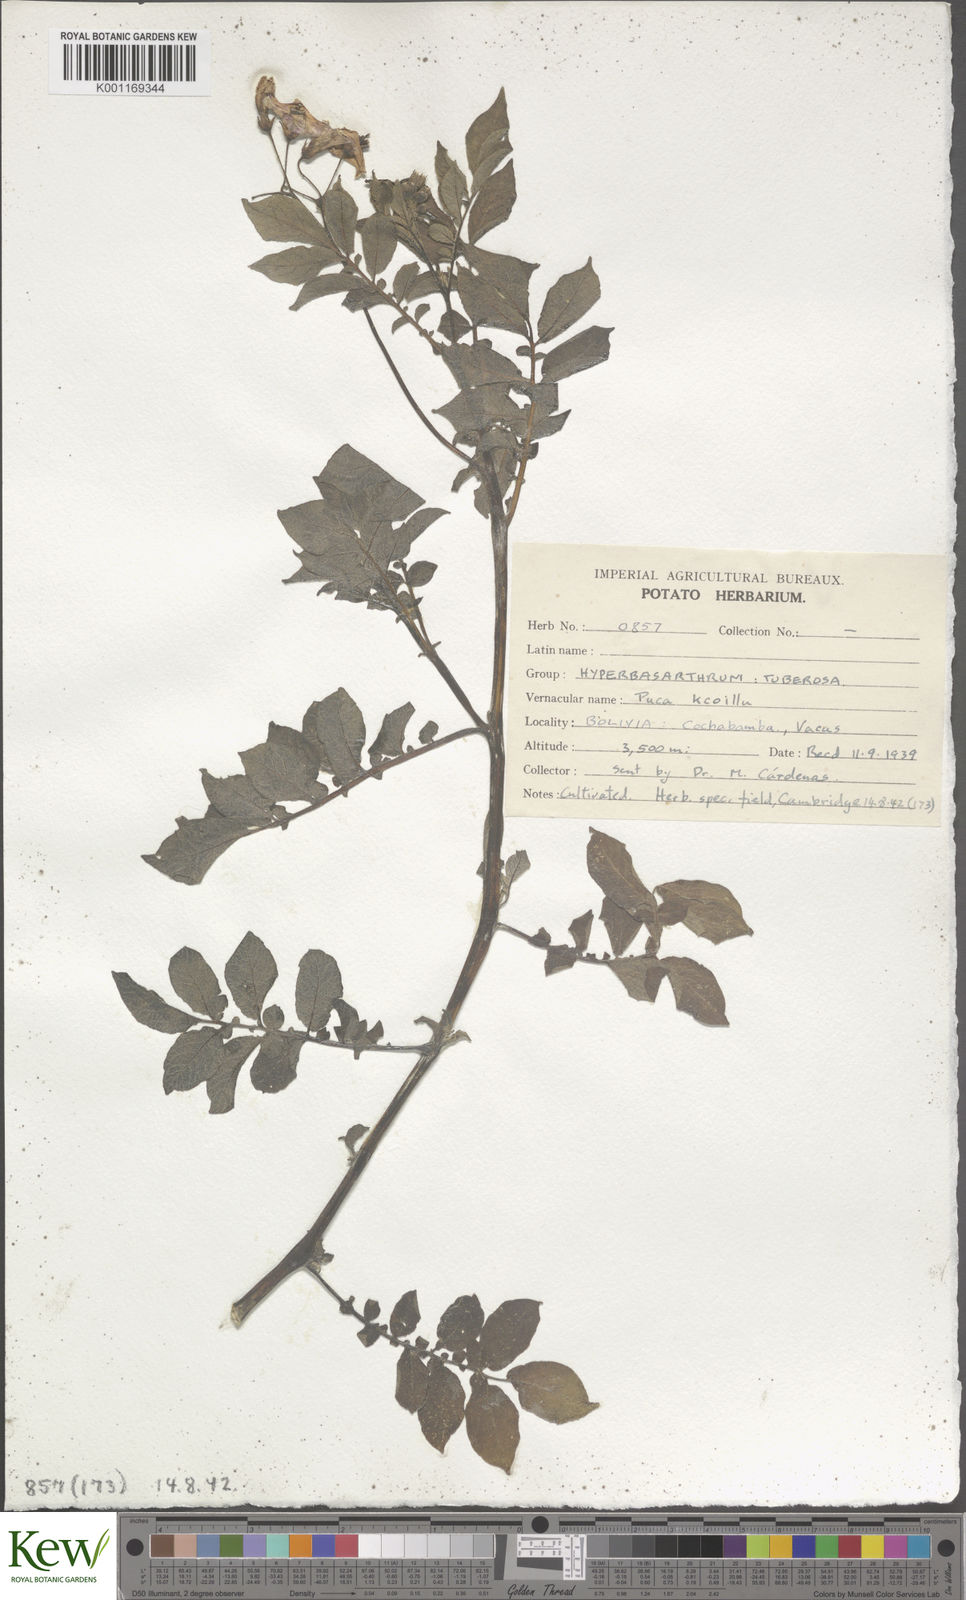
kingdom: Plantae
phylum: Tracheophyta
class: Magnoliopsida
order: Solanales
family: Solanaceae
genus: Solanum
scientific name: Solanum chaucha
